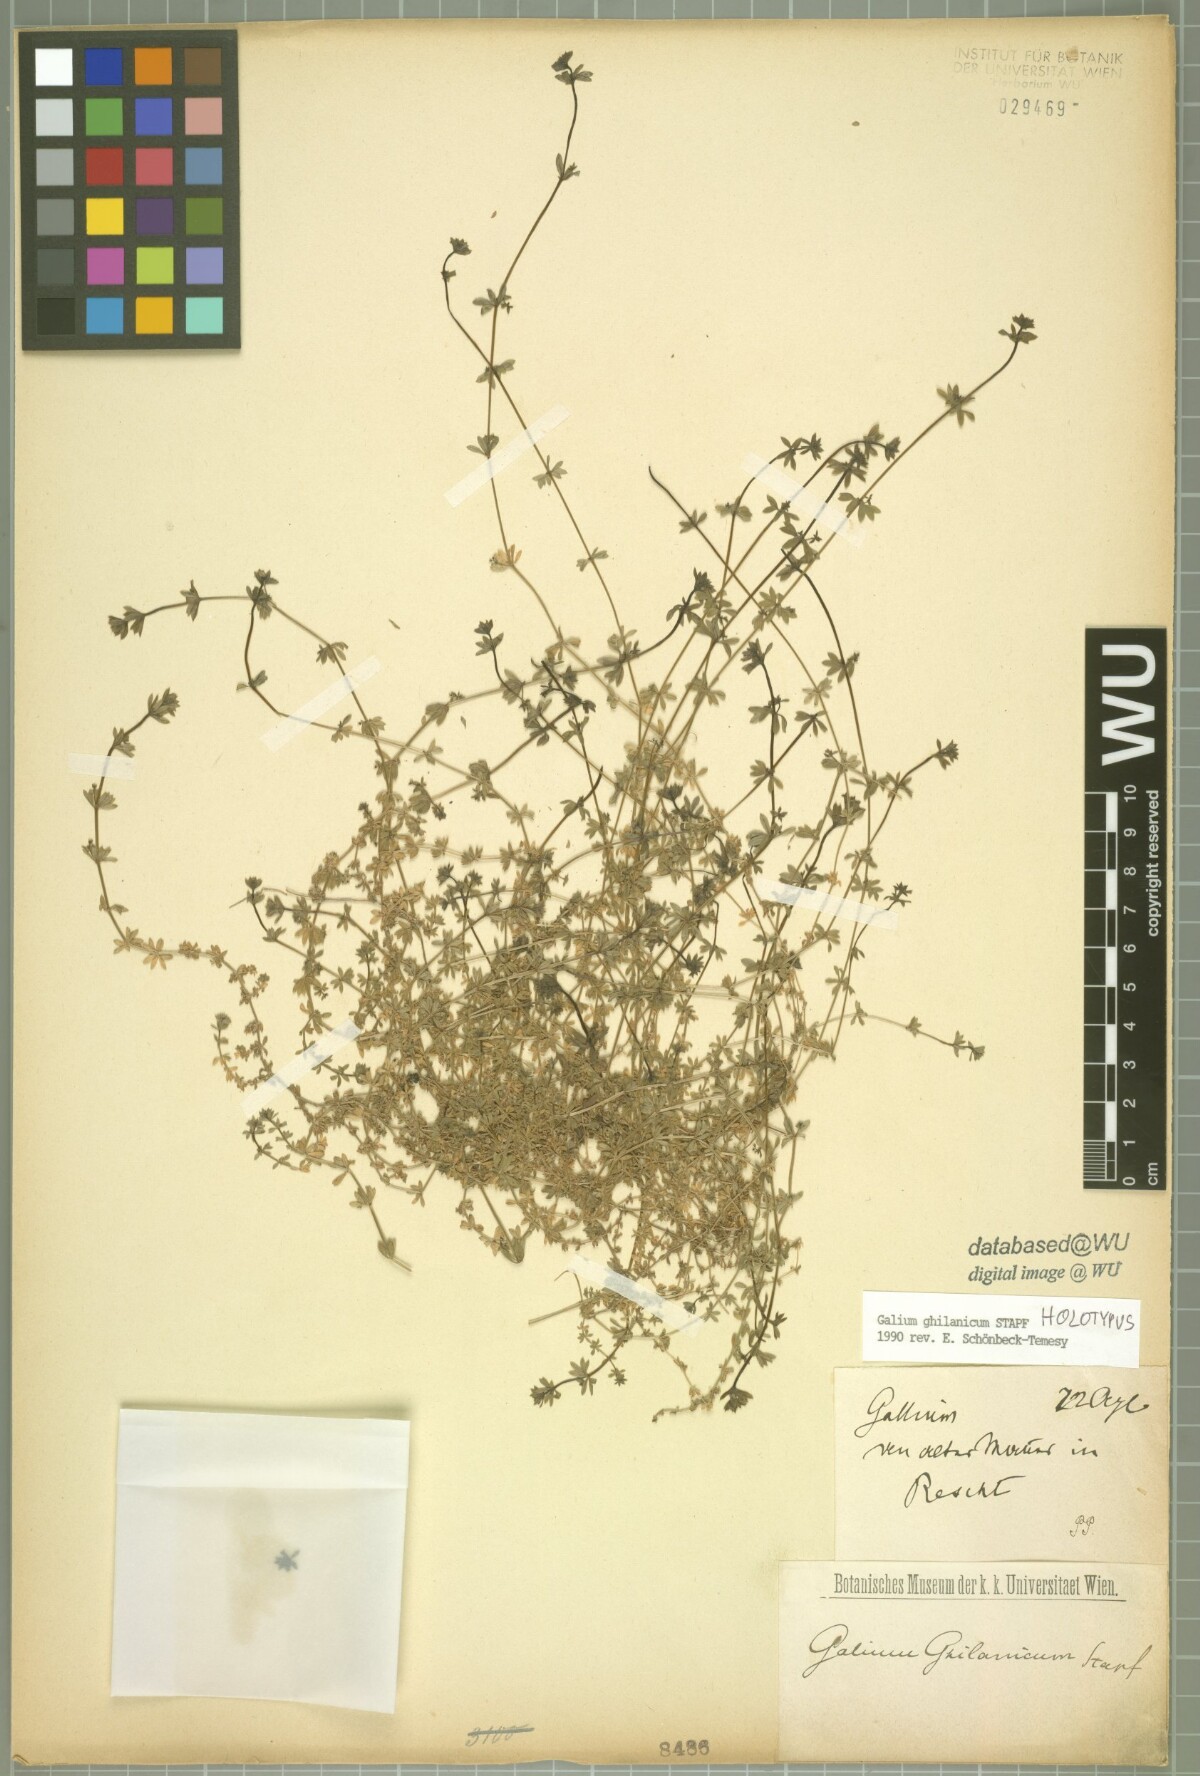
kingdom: Plantae
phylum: Tracheophyta
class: Magnoliopsida
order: Gentianales
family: Rubiaceae
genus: Galium
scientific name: Galium ghilanicum
